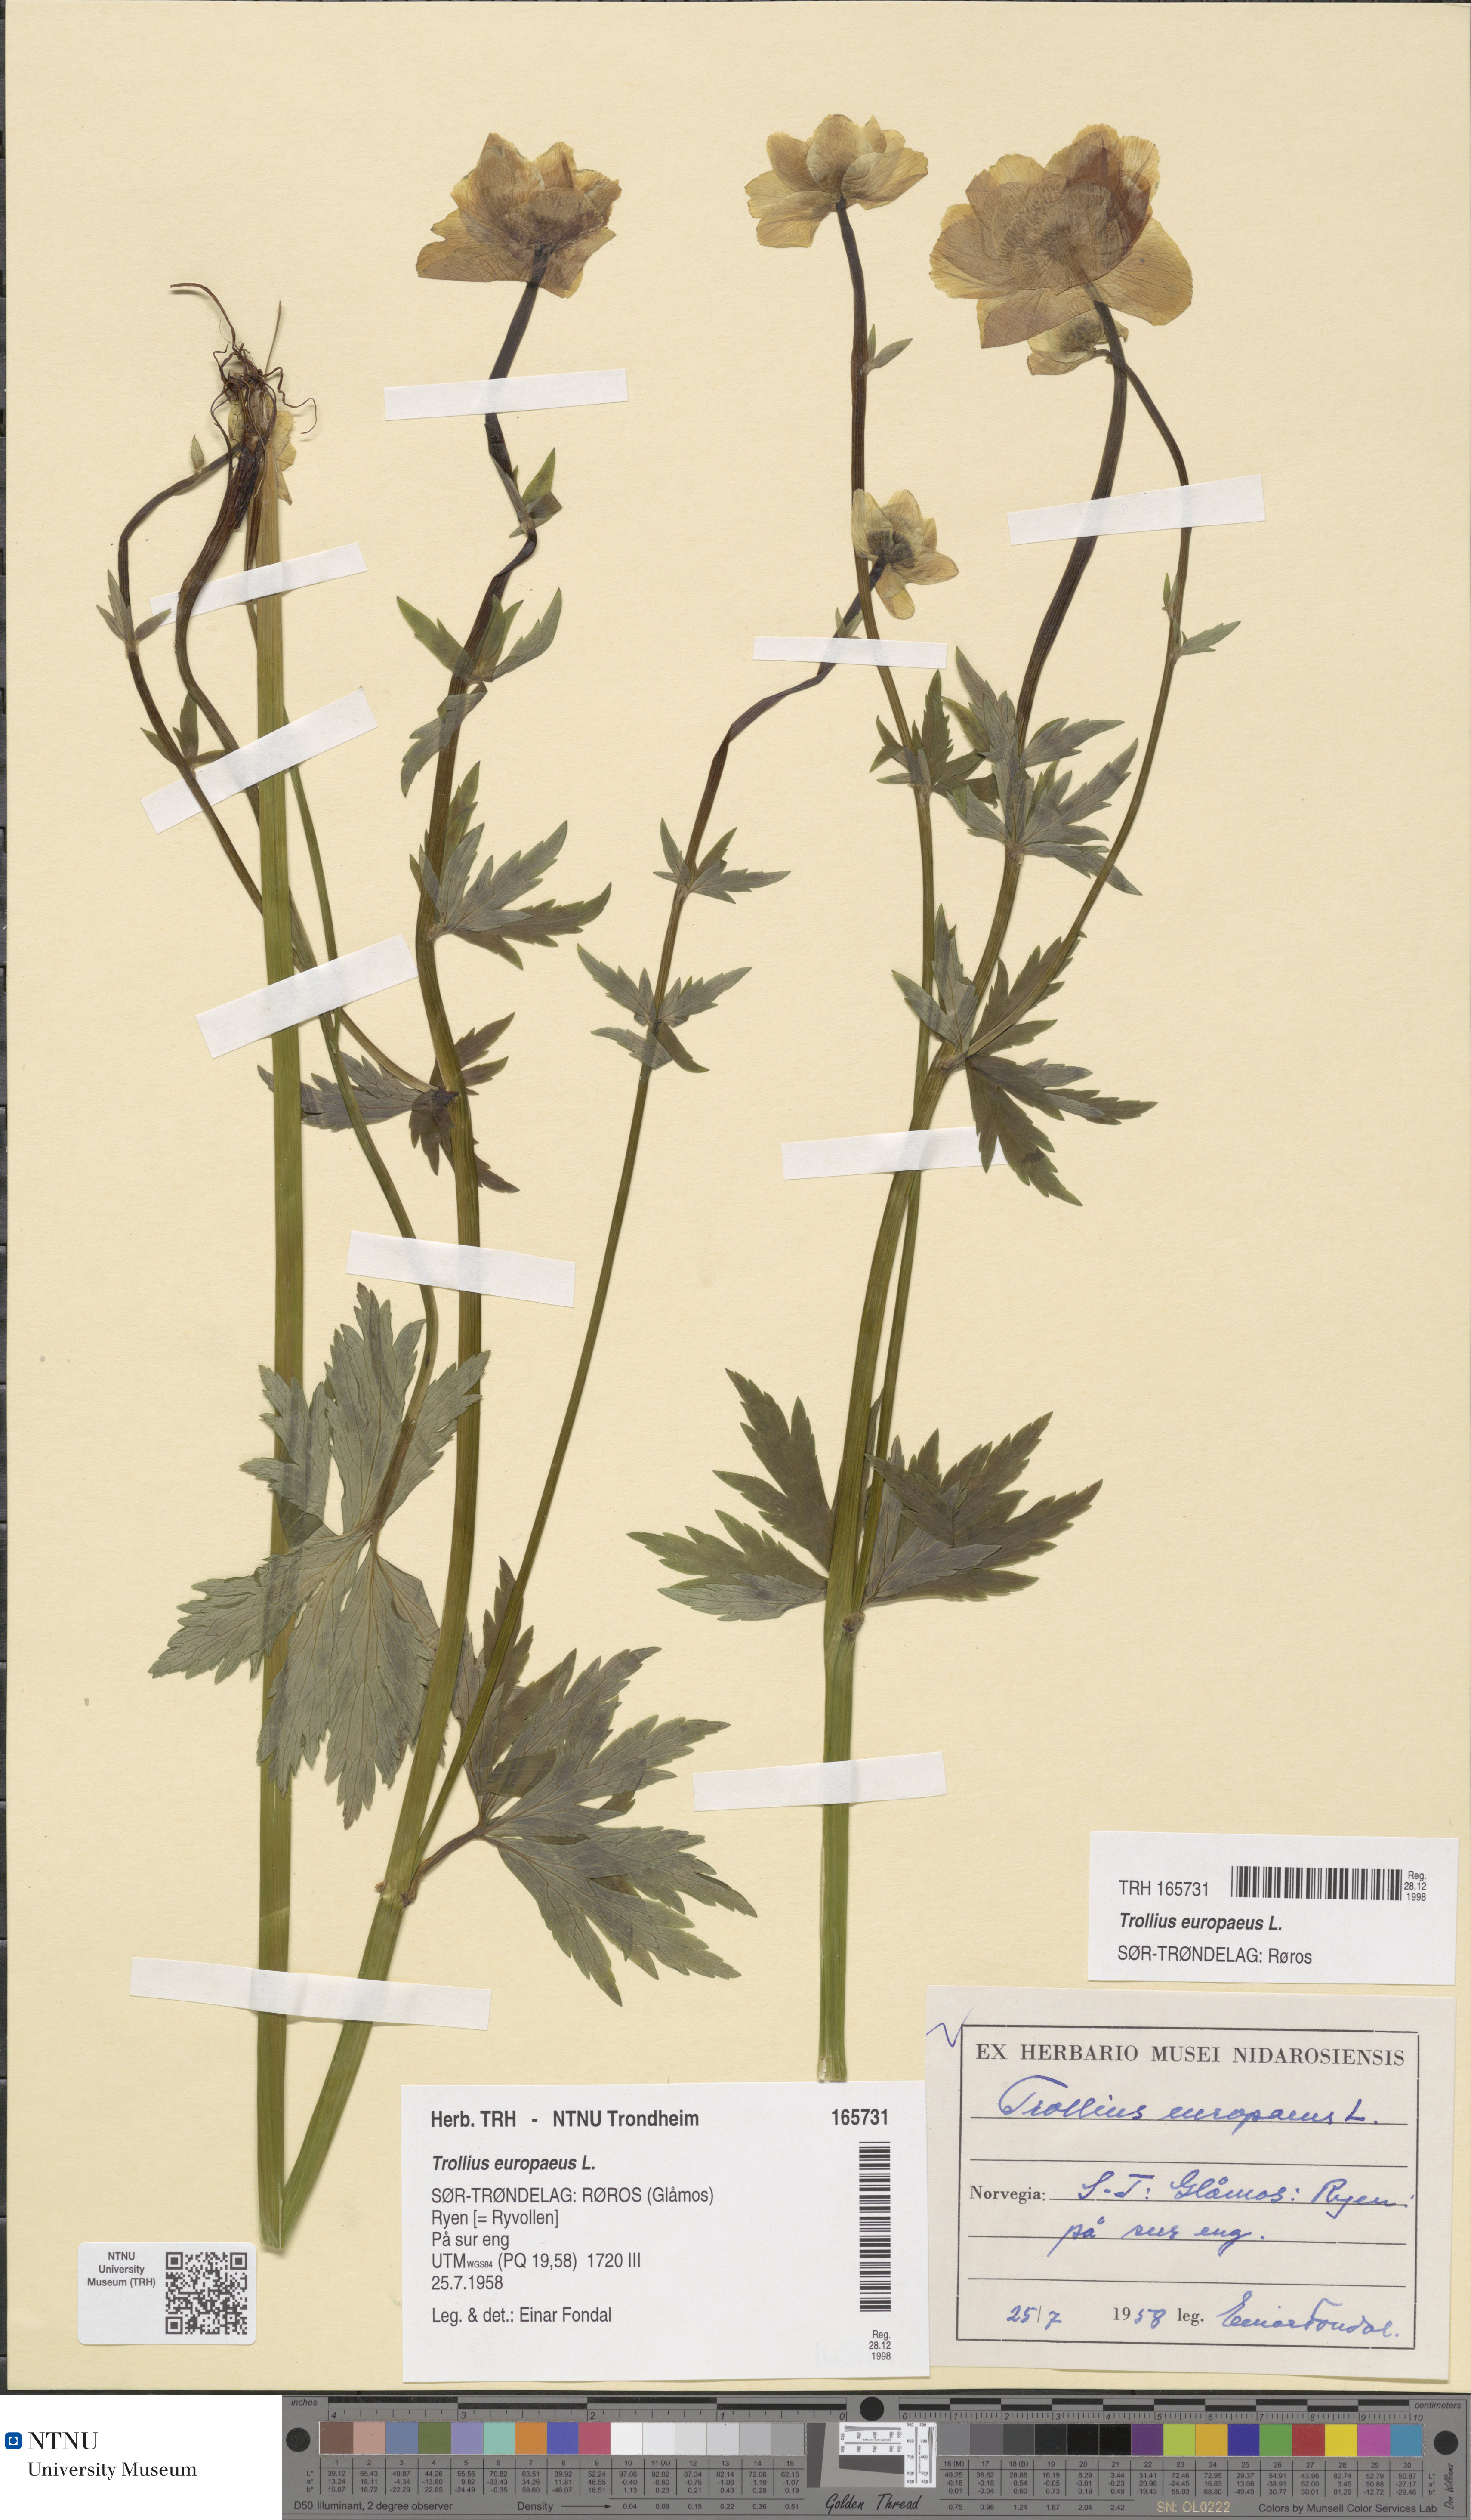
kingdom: Plantae
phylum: Tracheophyta
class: Magnoliopsida
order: Ranunculales
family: Ranunculaceae
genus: Trollius
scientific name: Trollius europaeus
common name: European globeflower
